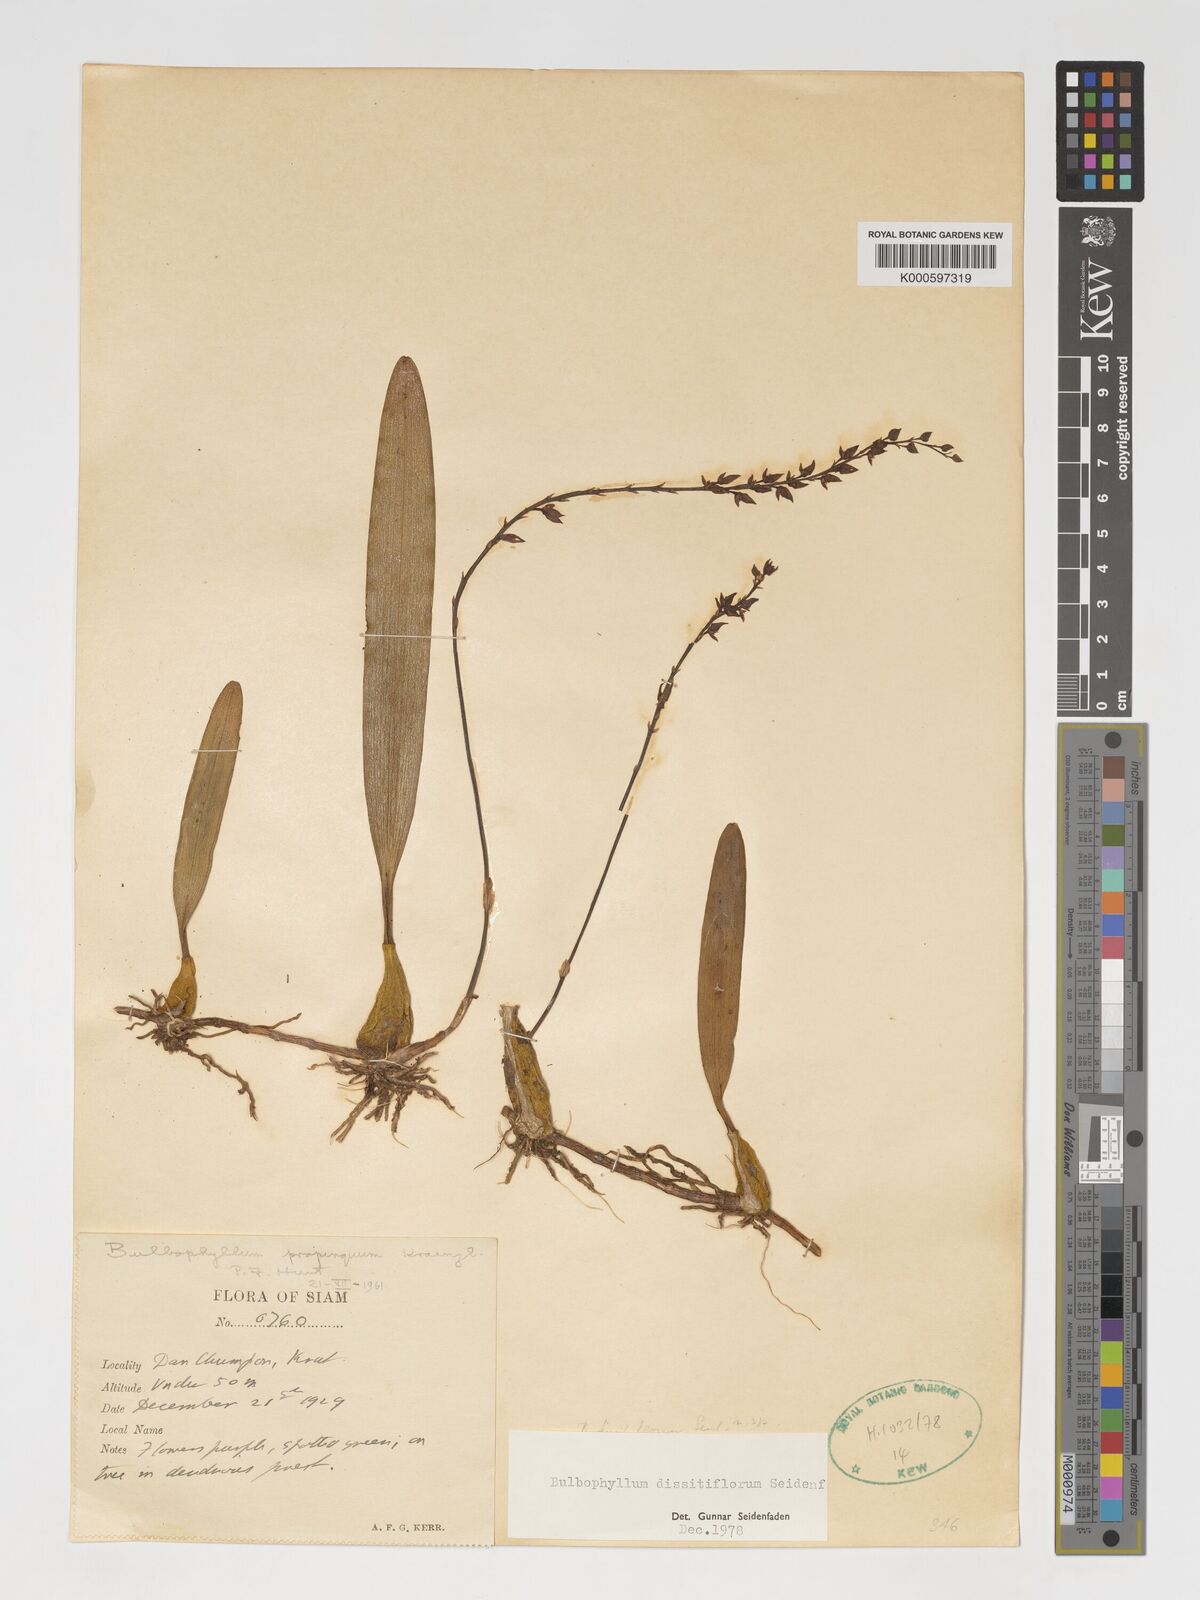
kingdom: Plantae
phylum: Tracheophyta
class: Liliopsida
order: Asparagales
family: Orchidaceae
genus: Bulbophyllum
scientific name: Bulbophyllum dissitiflorum
